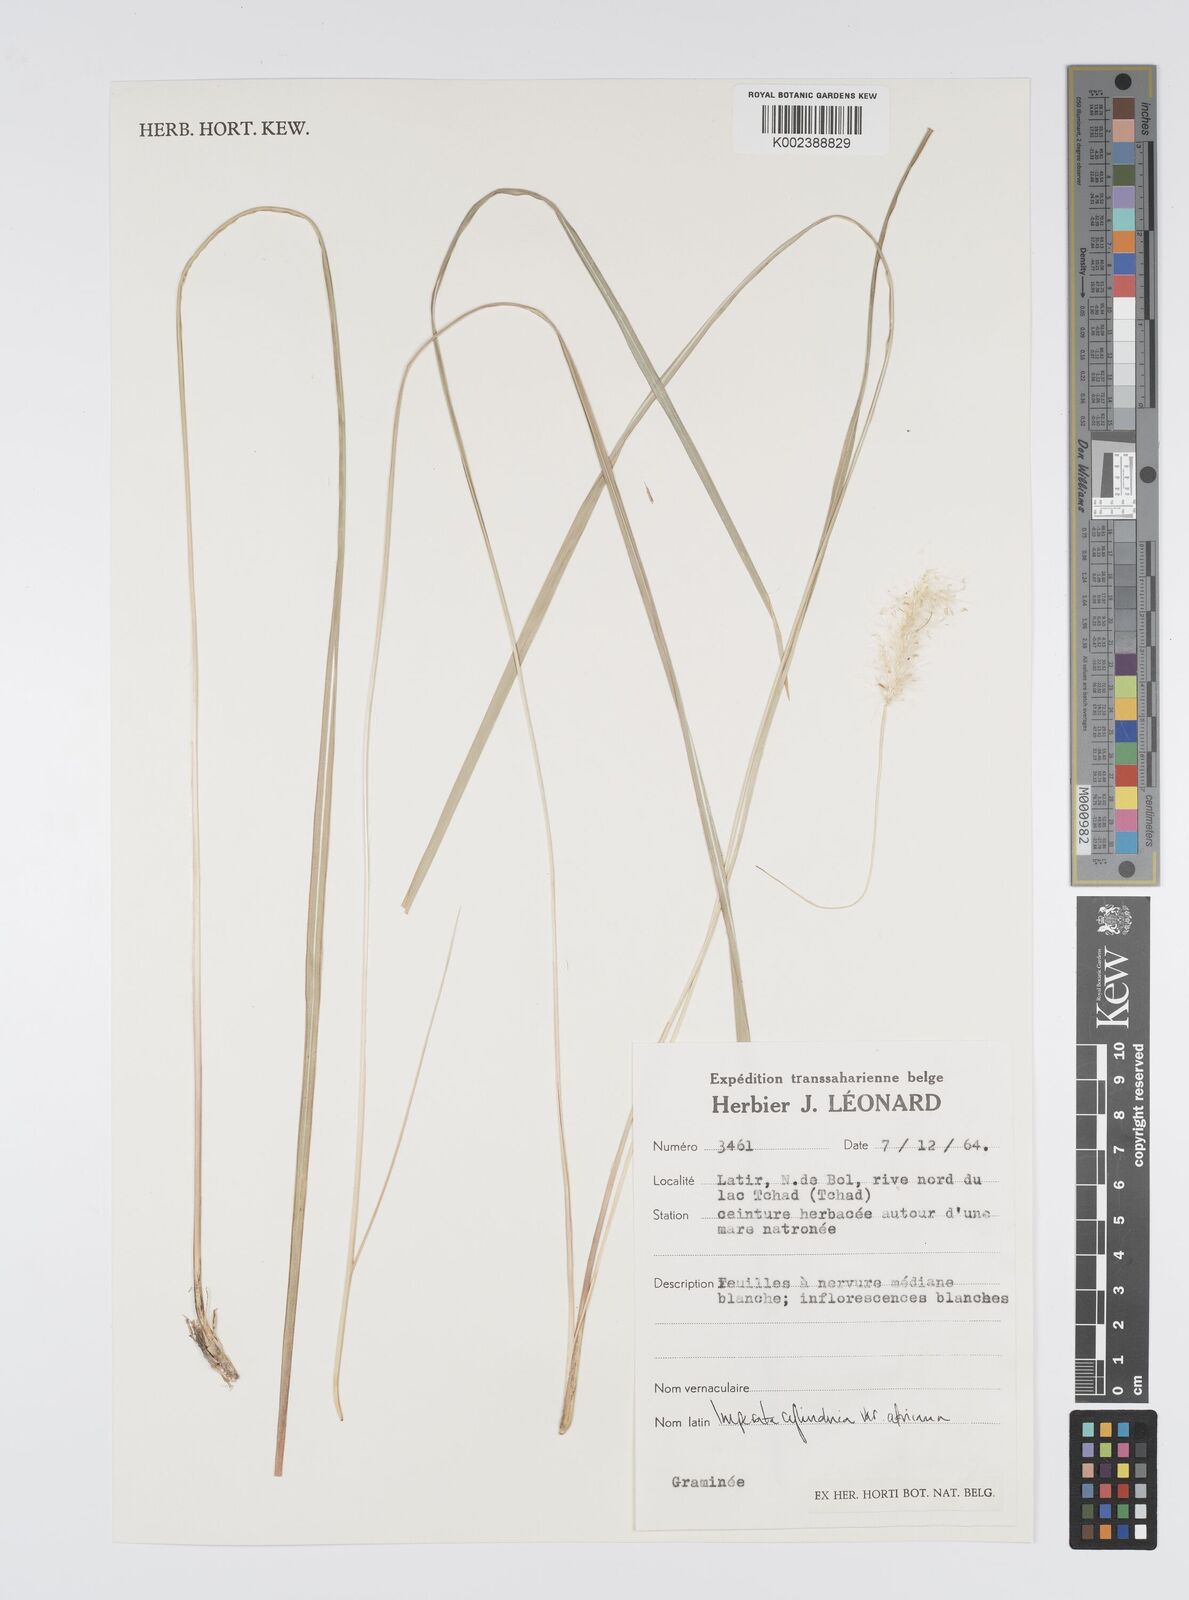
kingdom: Plantae
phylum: Tracheophyta
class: Liliopsida
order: Poales
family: Poaceae
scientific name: Poaceae
